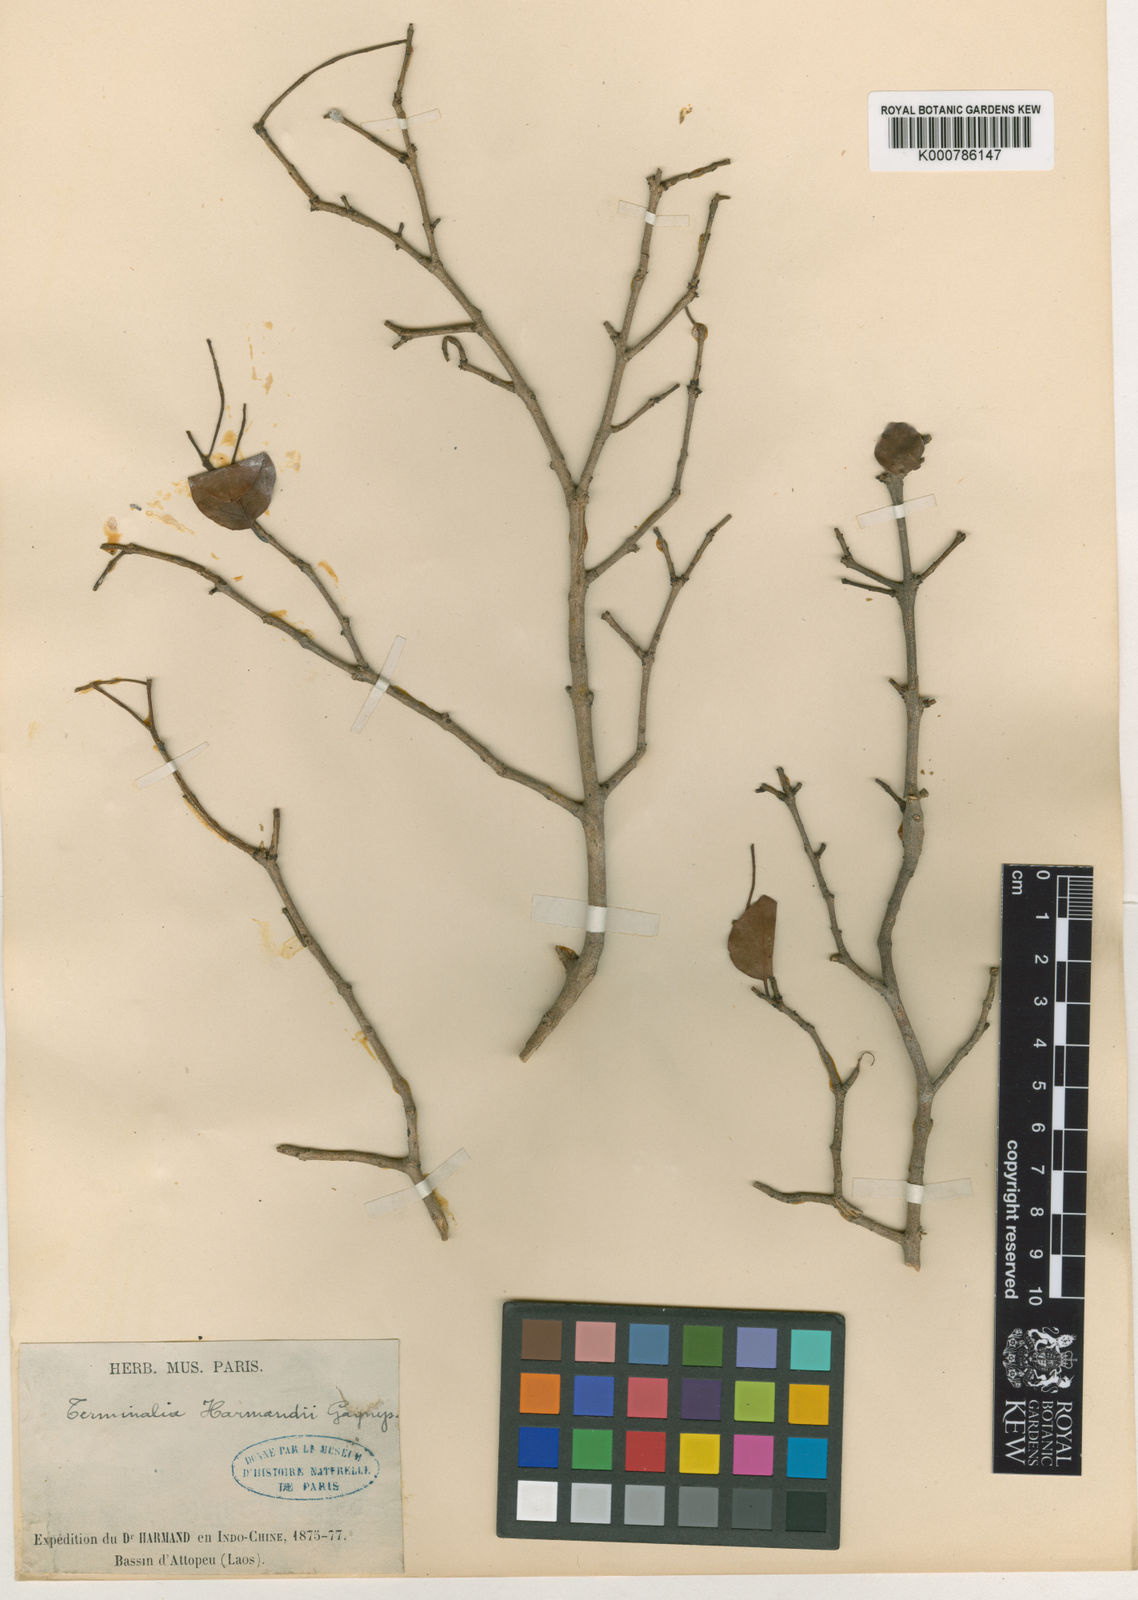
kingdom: Plantae
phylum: Tracheophyta
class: Magnoliopsida
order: Myrtales
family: Combretaceae
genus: Terminalia
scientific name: Terminalia harmandii
